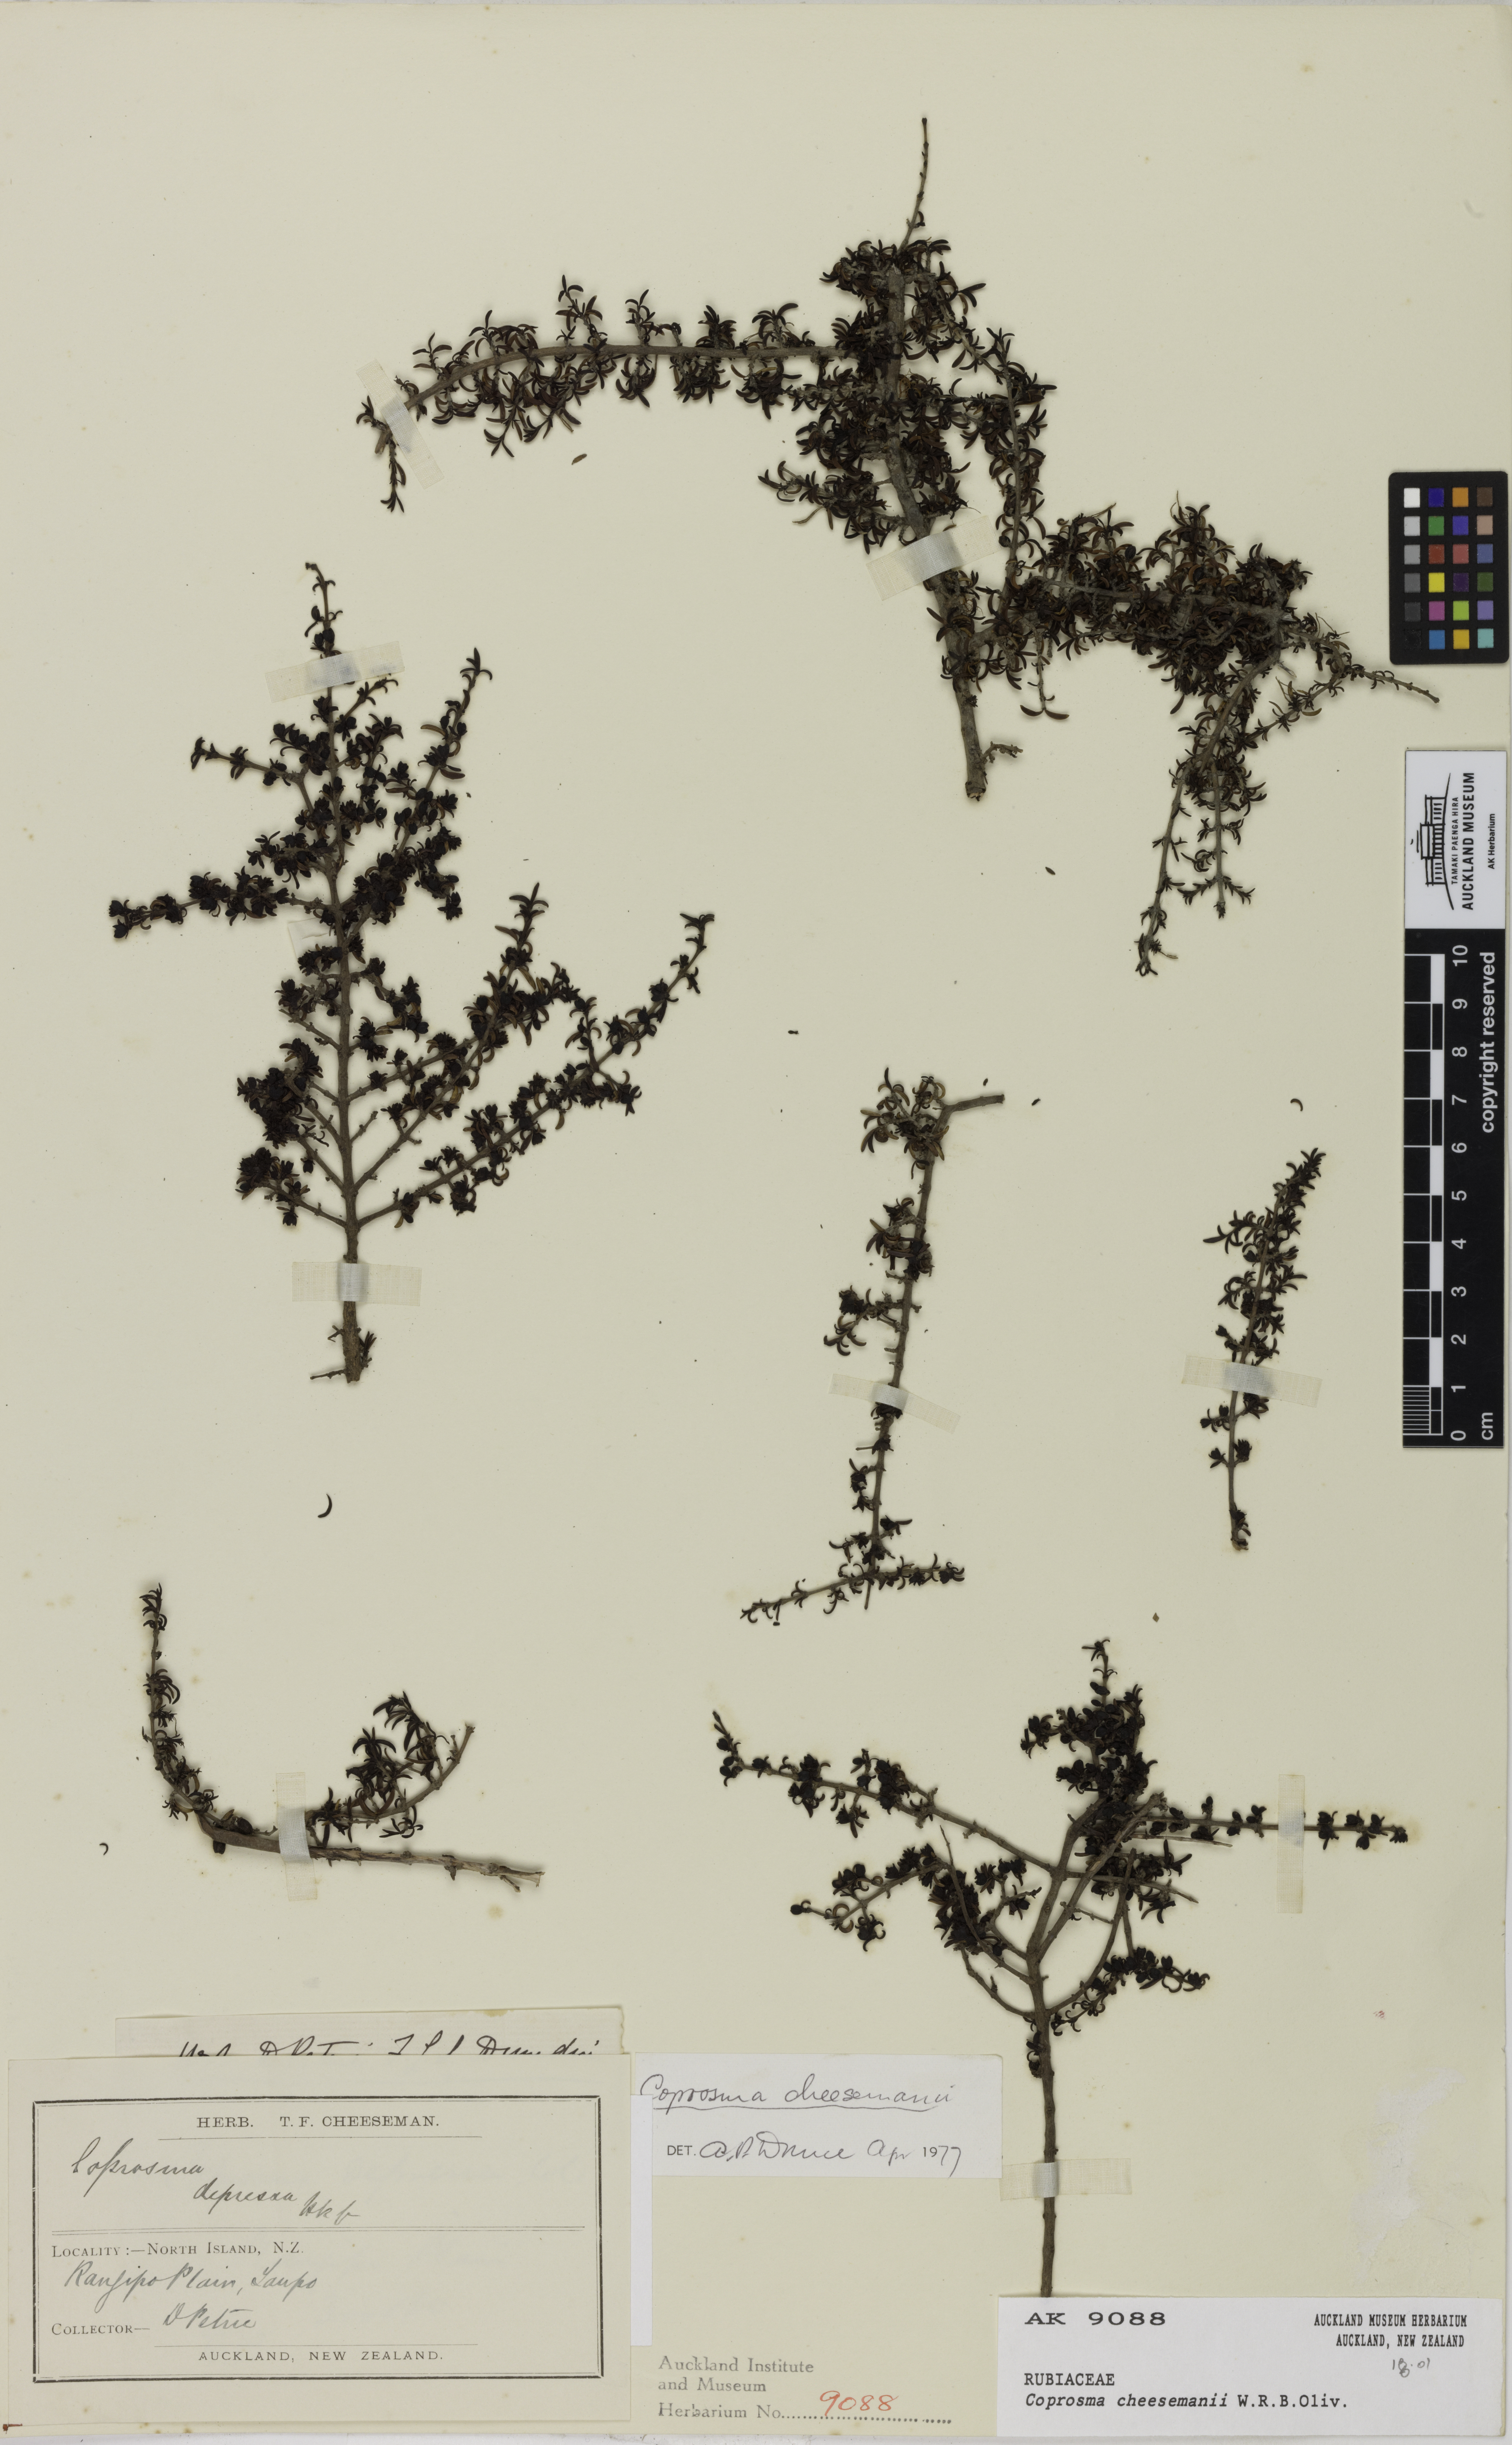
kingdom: Plantae
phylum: Tracheophyta
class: Magnoliopsida
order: Gentianales
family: Rubiaceae
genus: Coprosma
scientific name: Coprosma cheesemanii
